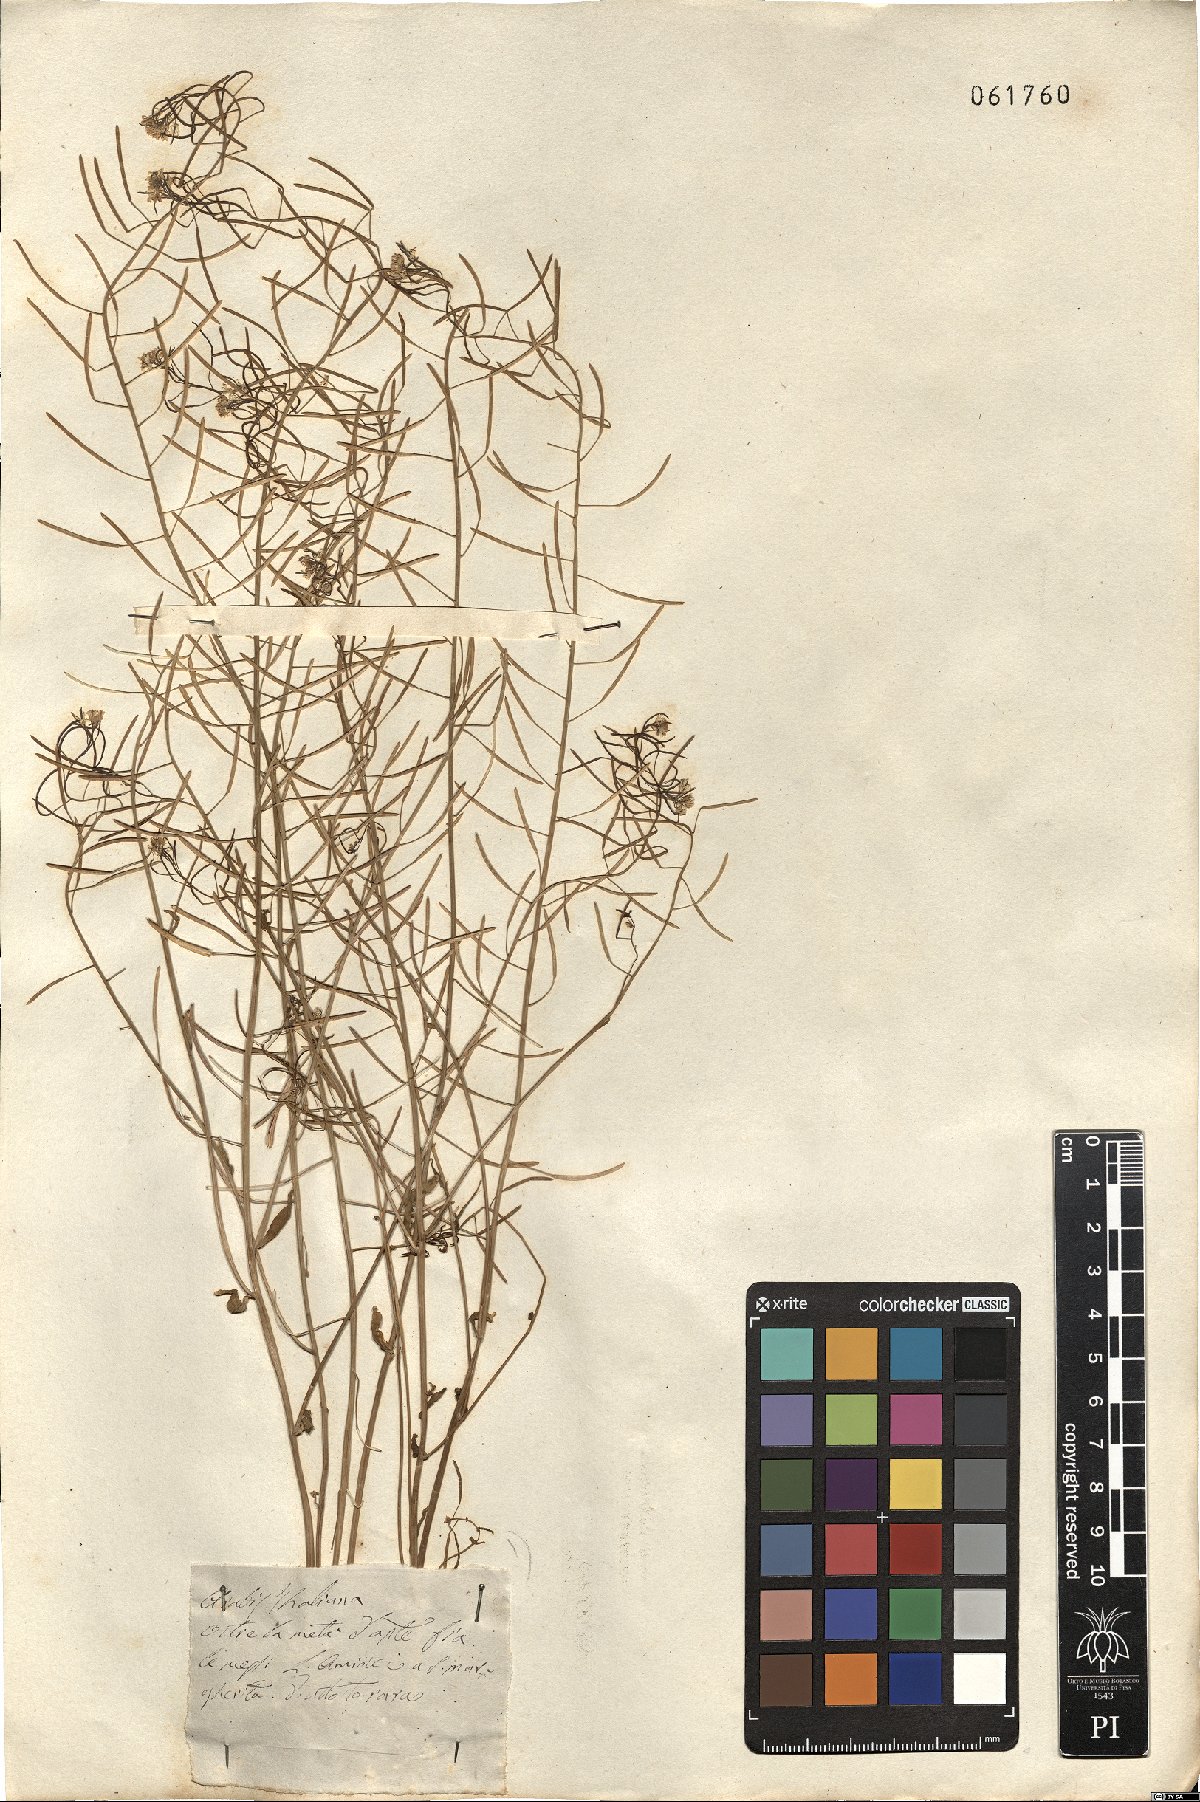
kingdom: Plantae
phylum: Tracheophyta
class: Magnoliopsida
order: Brassicales
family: Brassicaceae
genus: Arabidopsis
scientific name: Arabidopsis thaliana
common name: Thale cress
